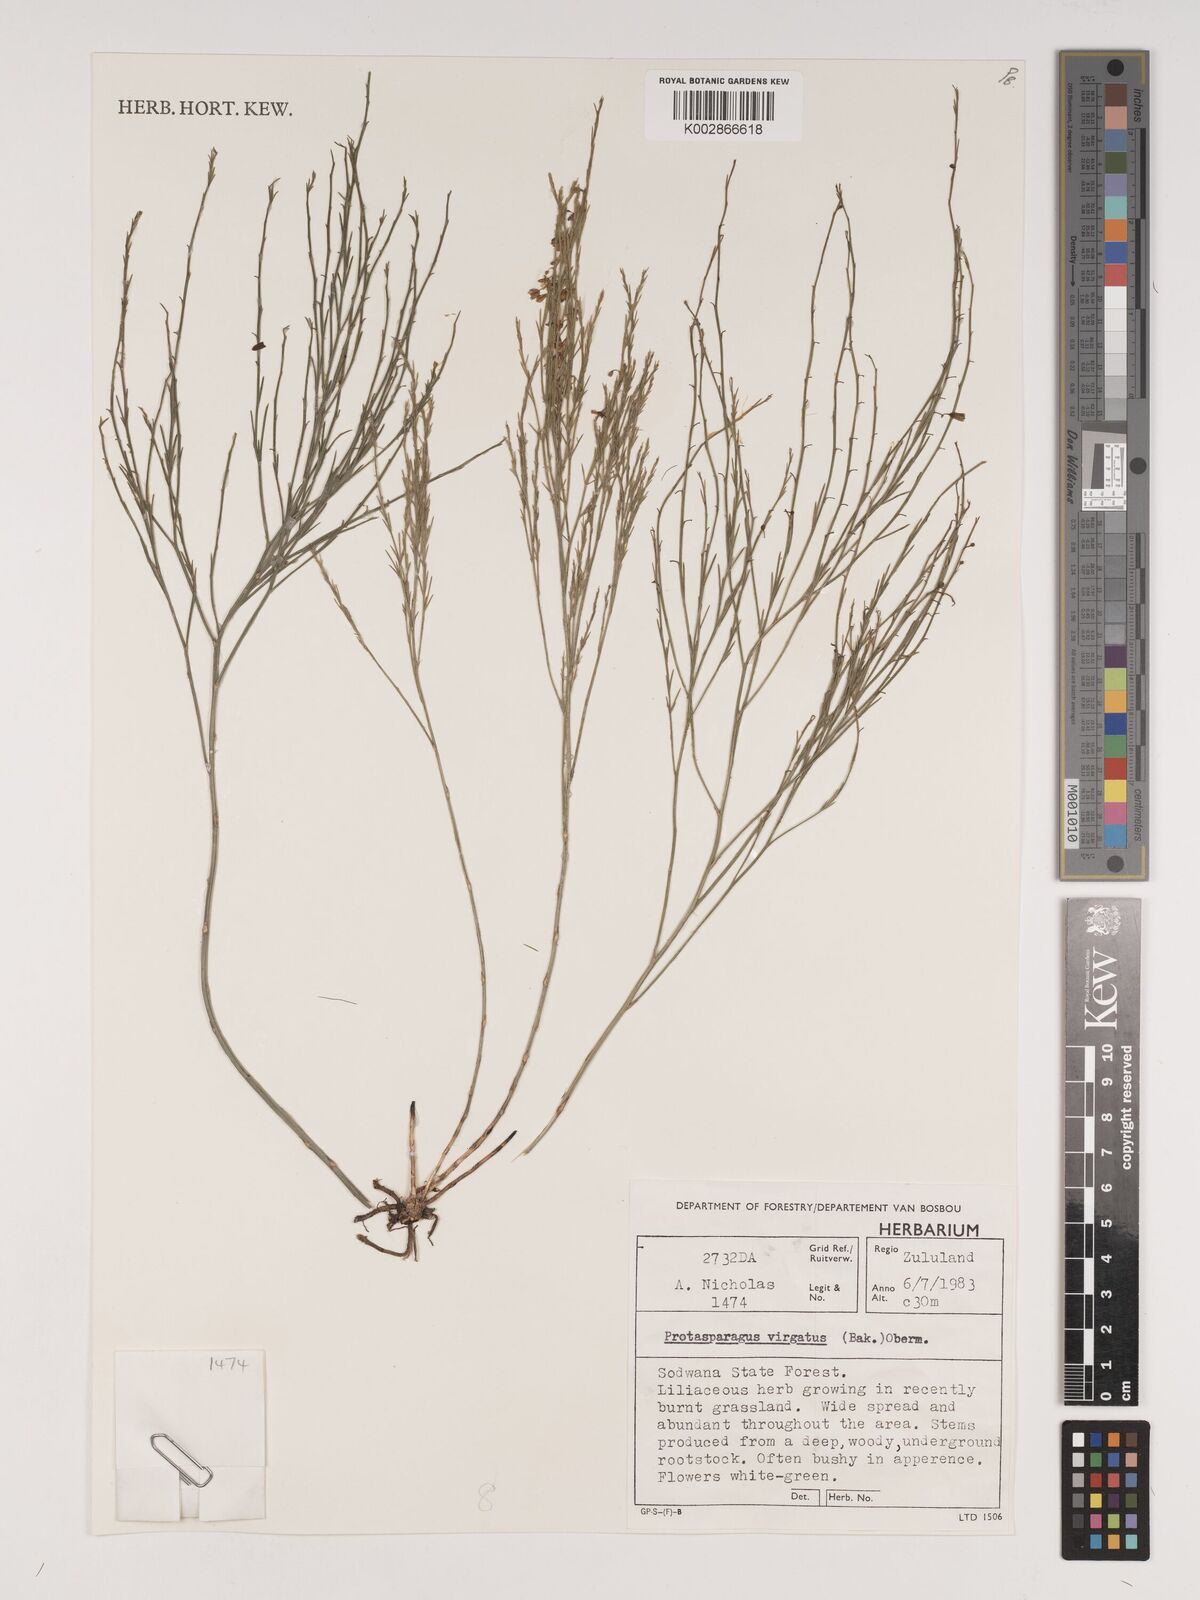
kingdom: Plantae
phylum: Tracheophyta
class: Liliopsida
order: Asparagales
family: Asparagaceae
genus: Asparagus
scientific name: Asparagus virgatus
